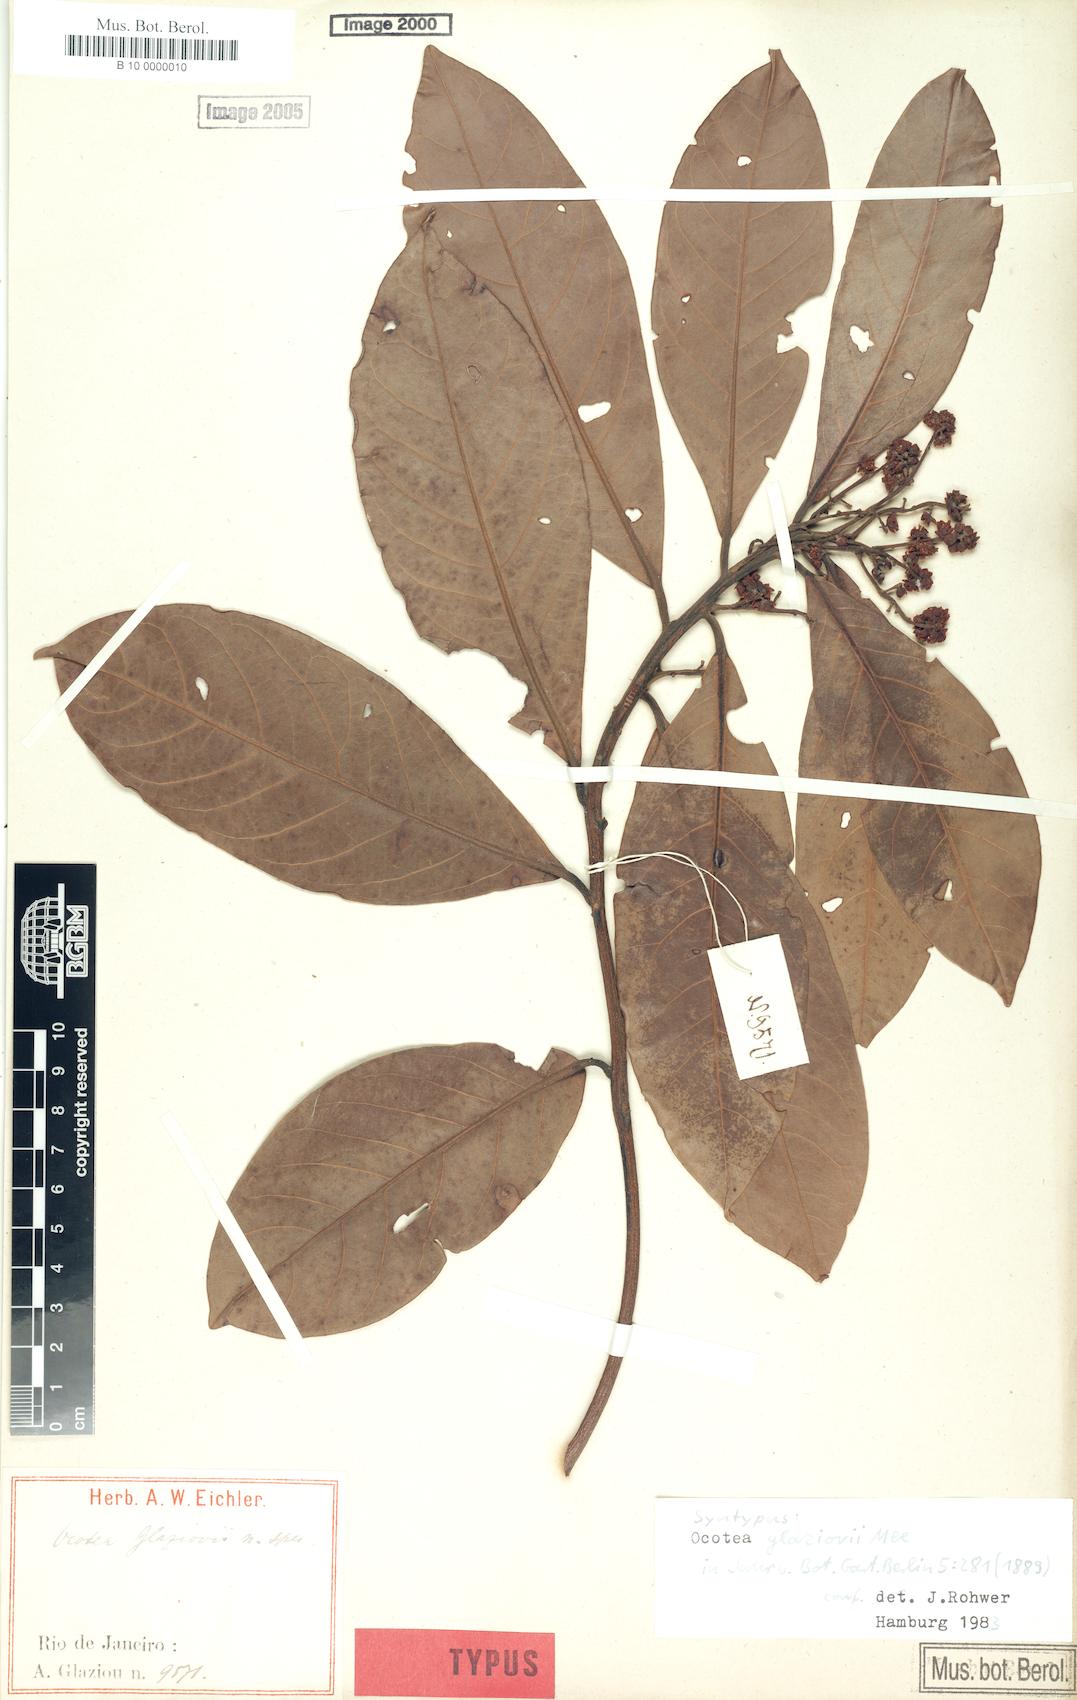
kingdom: Plantae
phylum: Tracheophyta
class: Magnoliopsida
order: Laurales
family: Lauraceae
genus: Ocotea
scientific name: Ocotea glaziovii
